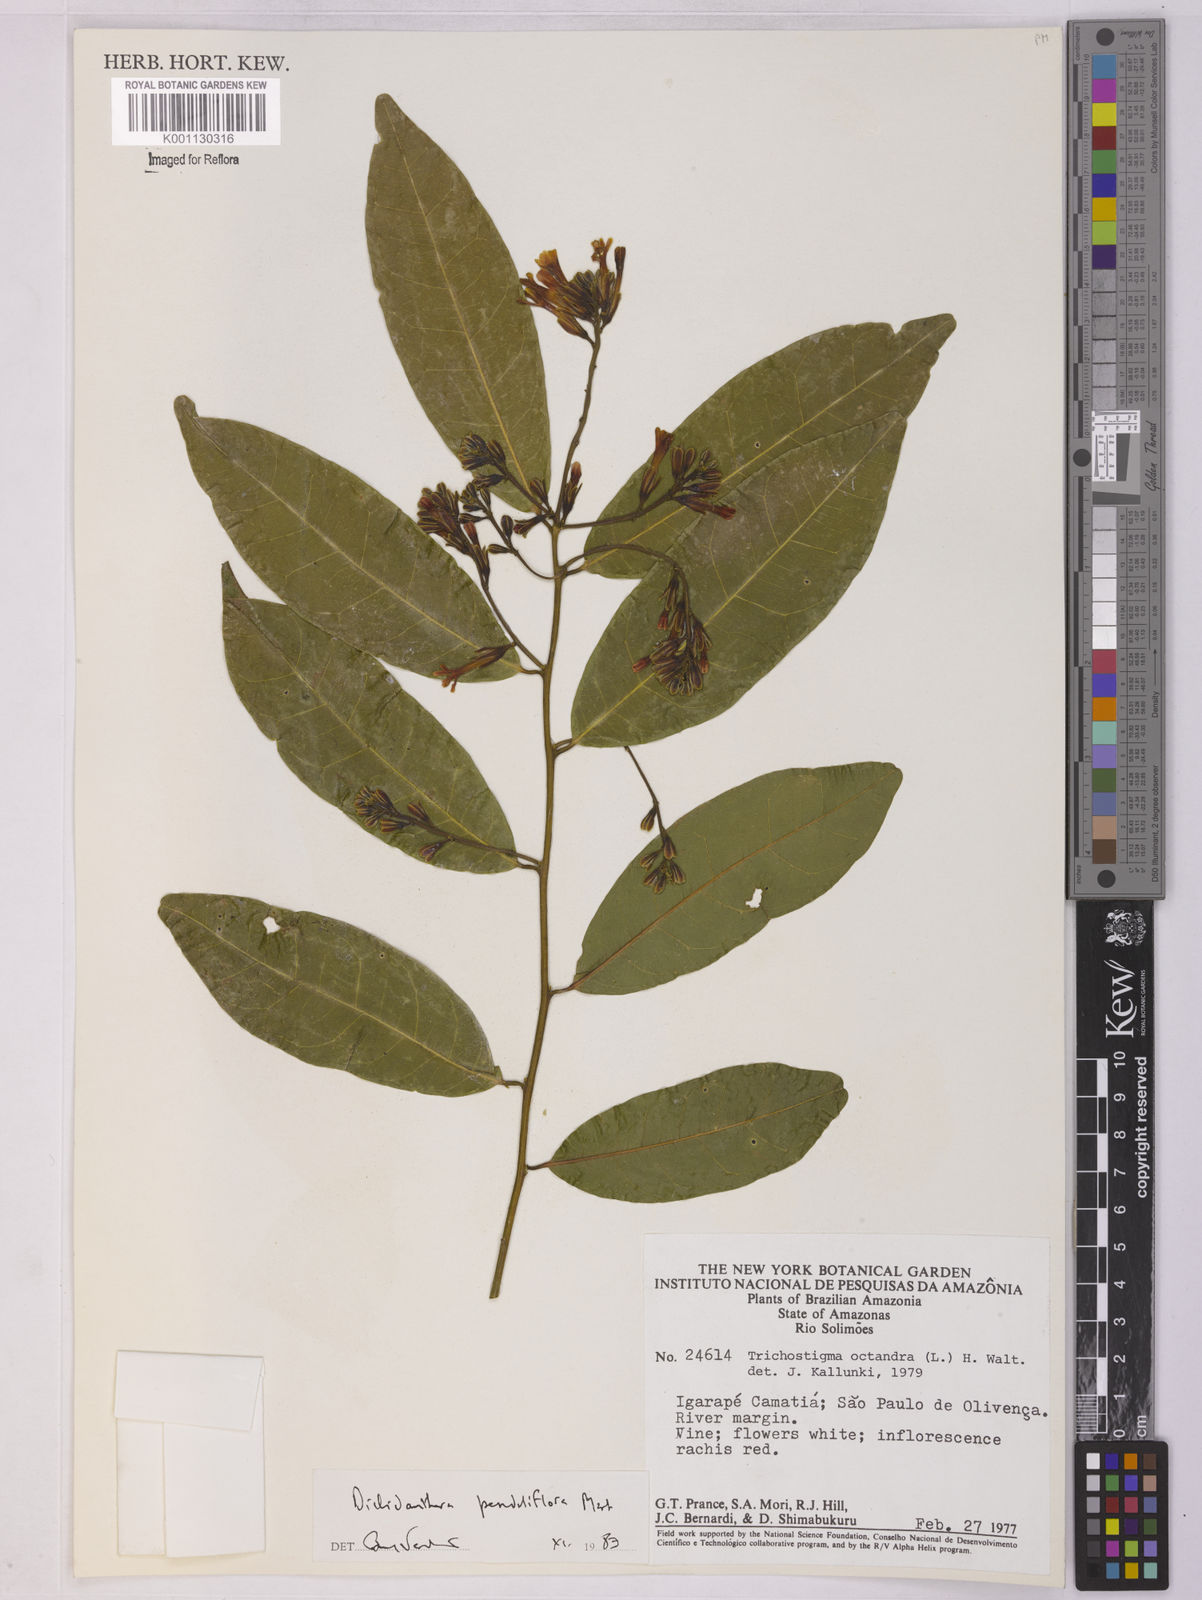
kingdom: Plantae
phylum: Tracheophyta
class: Magnoliopsida
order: Fabales
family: Polygalaceae
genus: Diclidanthera
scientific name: Diclidanthera penduliflora
